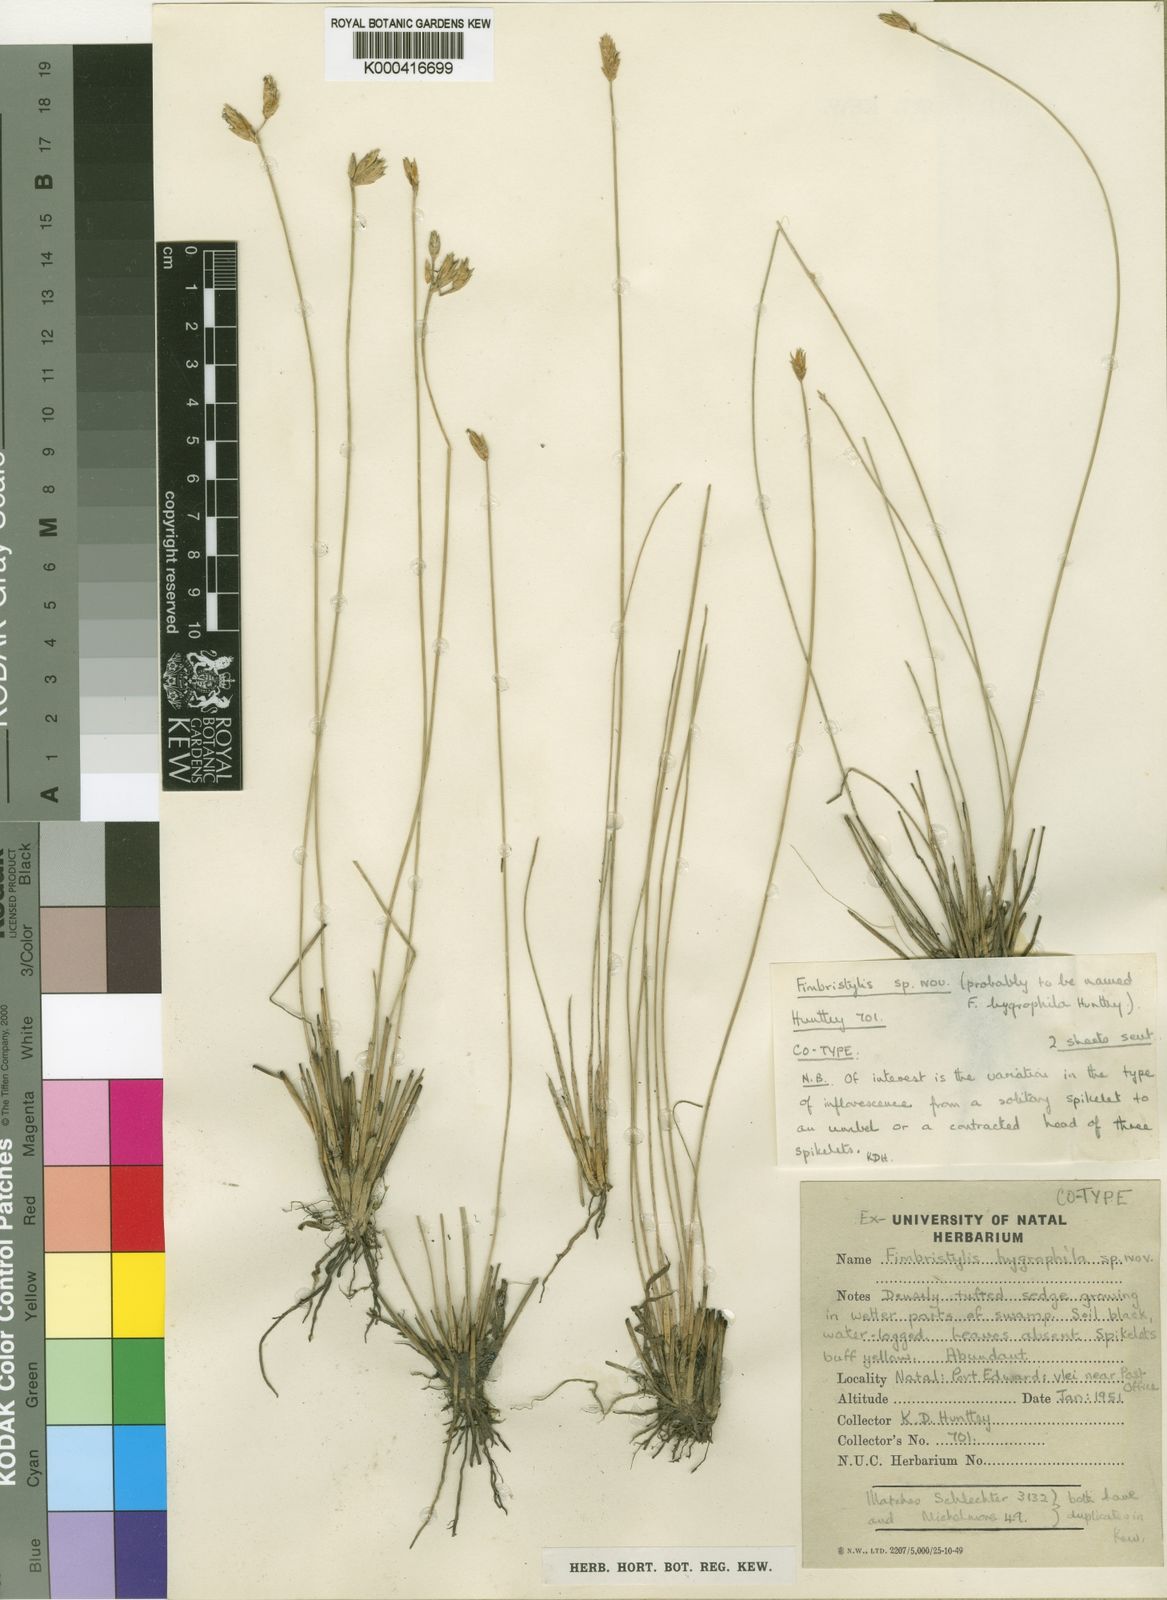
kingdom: Plantae
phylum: Tracheophyta
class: Liliopsida
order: Poales
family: Cyperaceae
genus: Fimbristylis
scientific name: Fimbristylis
